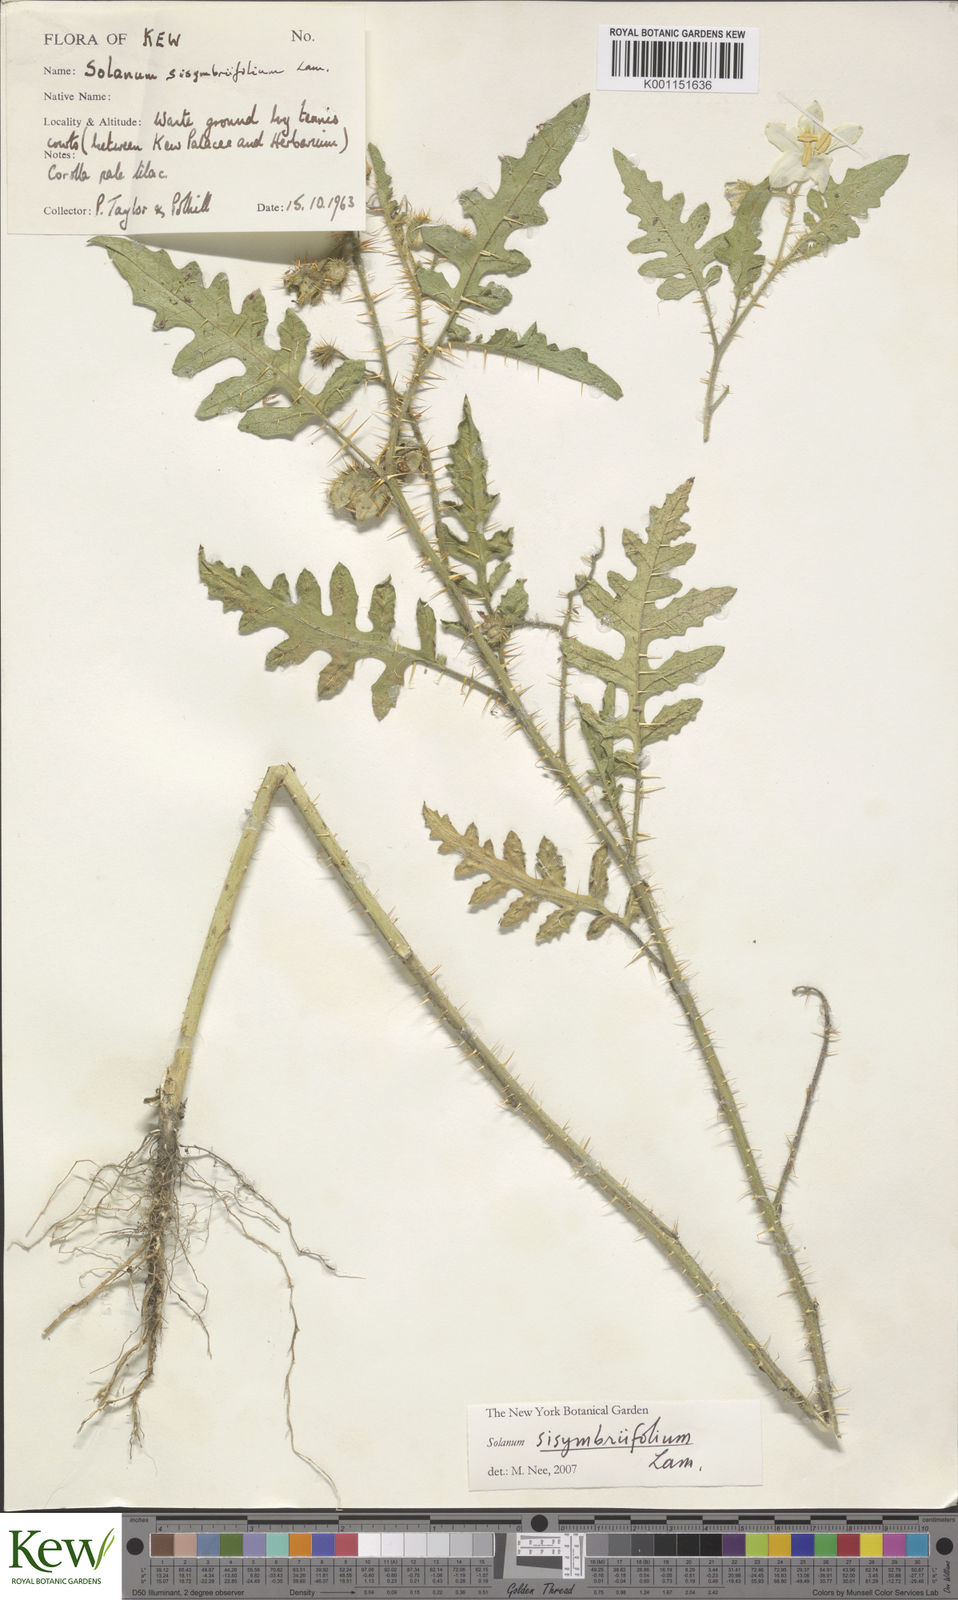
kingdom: Plantae
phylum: Tracheophyta
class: Magnoliopsida
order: Solanales
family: Solanaceae
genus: Solanum
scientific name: Solanum sisymbriifolium
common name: Red buffalo-bur
